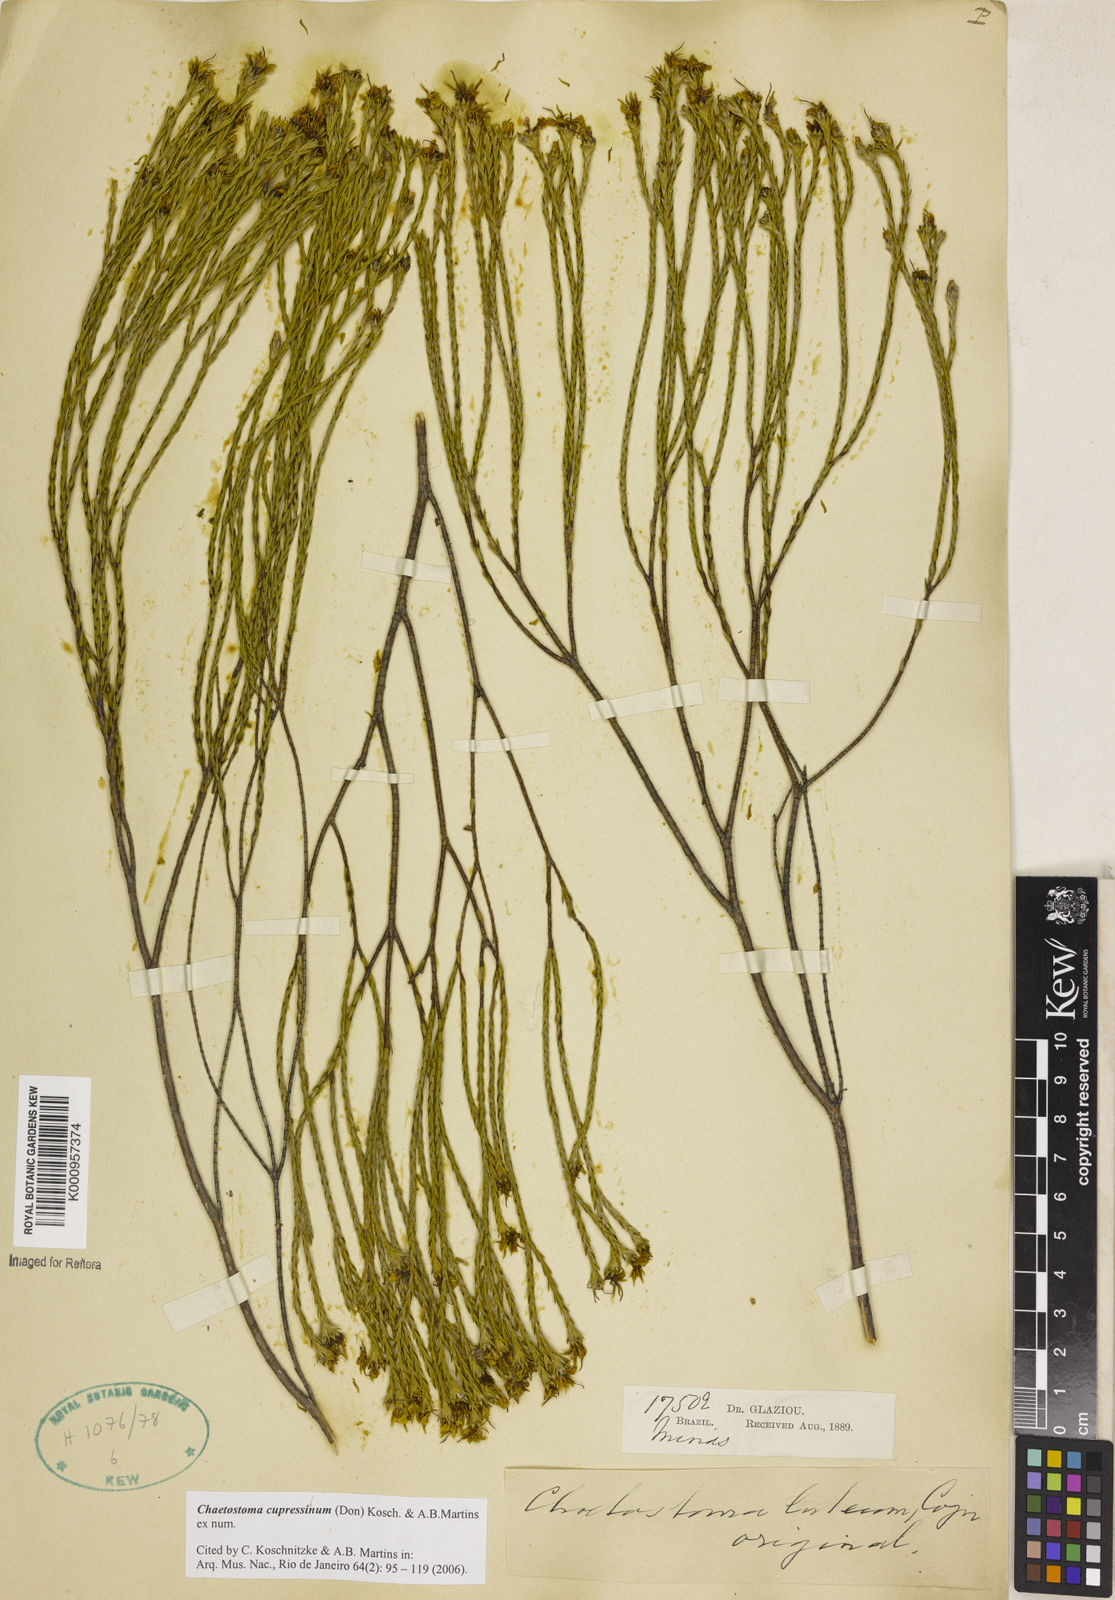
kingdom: Plantae
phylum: Tracheophyta
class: Magnoliopsida
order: Myrtales
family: Melastomataceae
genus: Microlicia
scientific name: Microlicia cupressina
